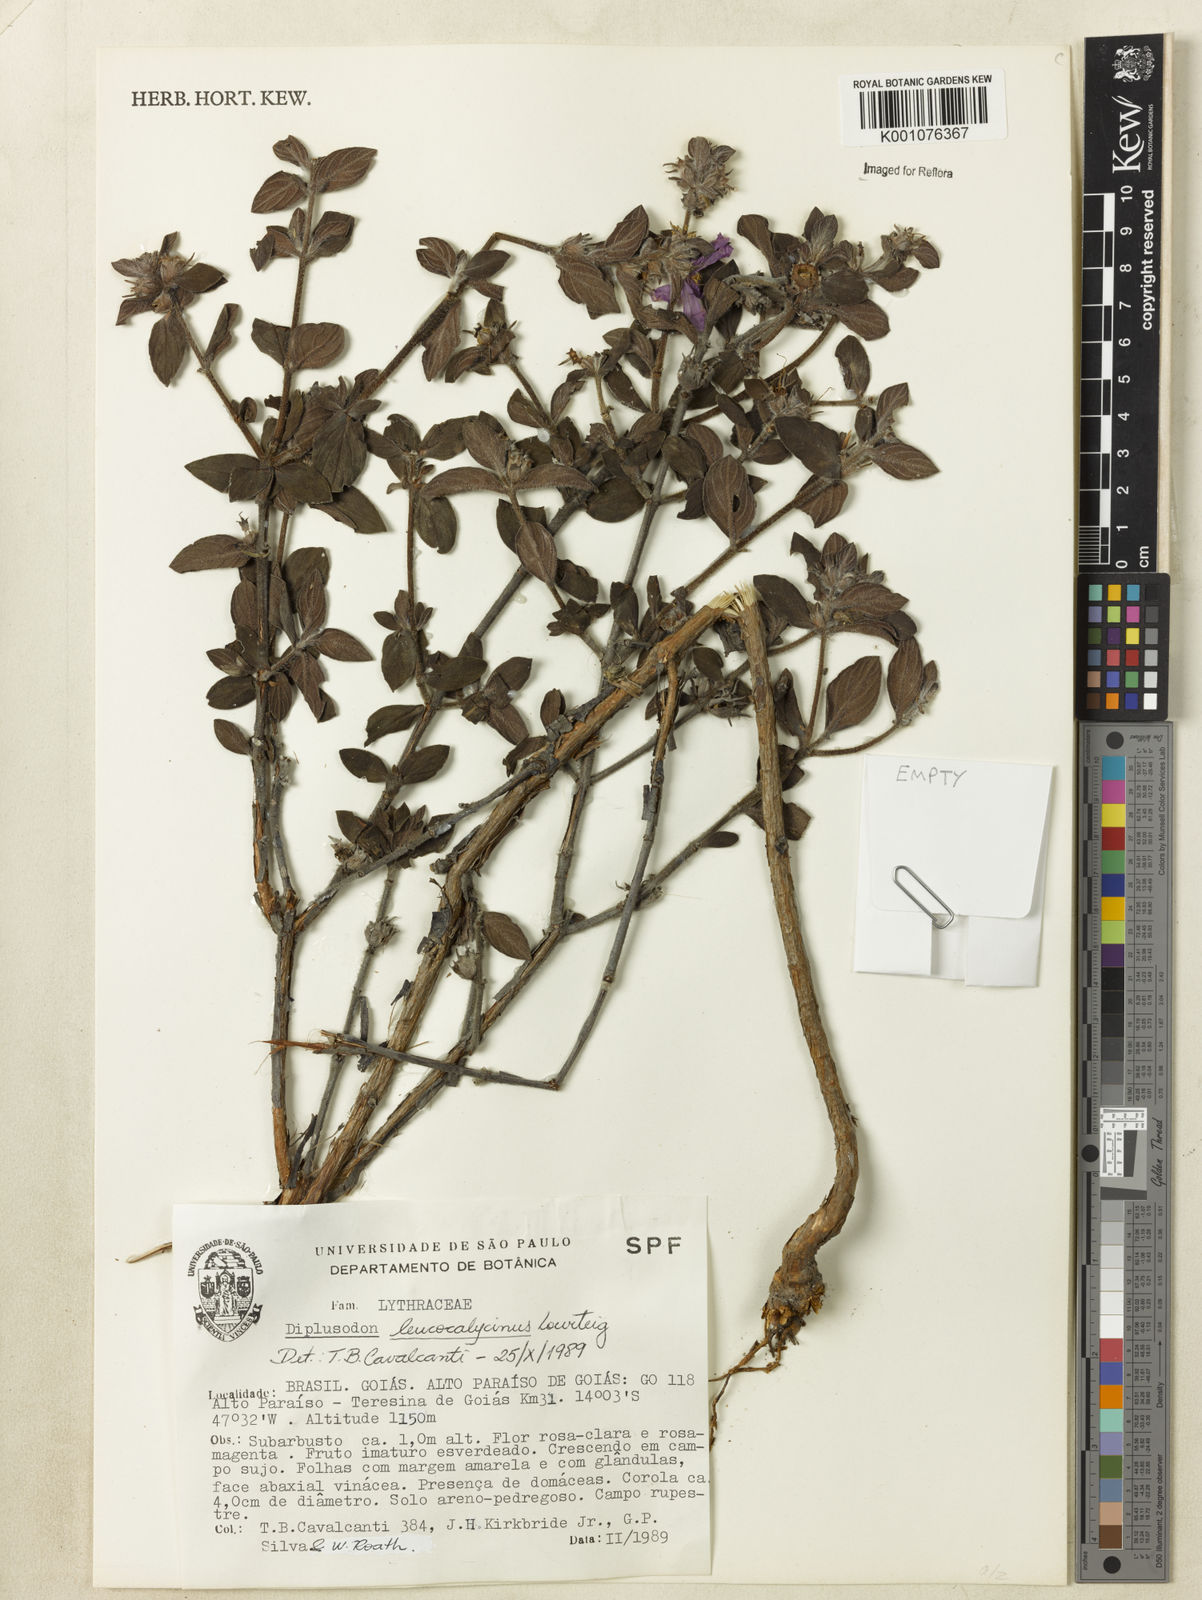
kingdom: Plantae
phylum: Tracheophyta
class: Magnoliopsida
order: Myrtales
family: Lythraceae
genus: Diplusodon
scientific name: Diplusodon leucocalycinus
